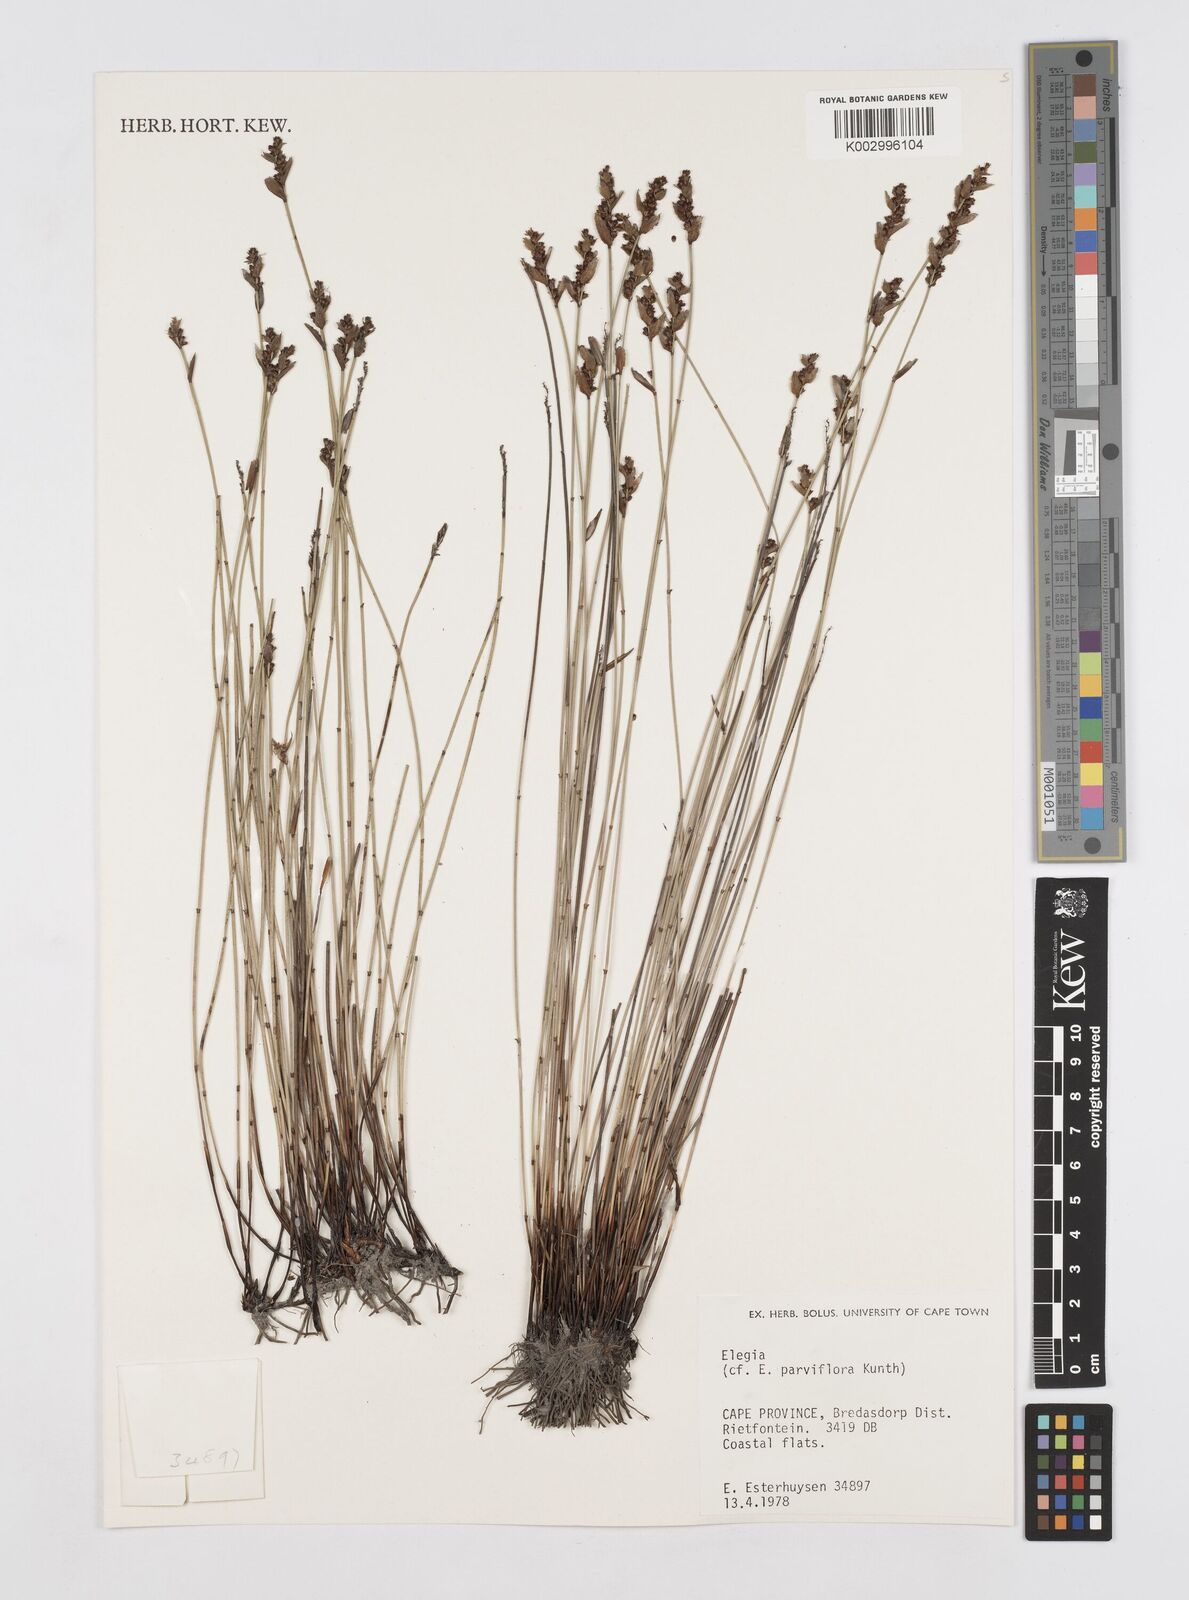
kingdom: Plantae
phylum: Tracheophyta
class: Liliopsida
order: Poales
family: Restionaceae
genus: Cannomois
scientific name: Cannomois parviflora
